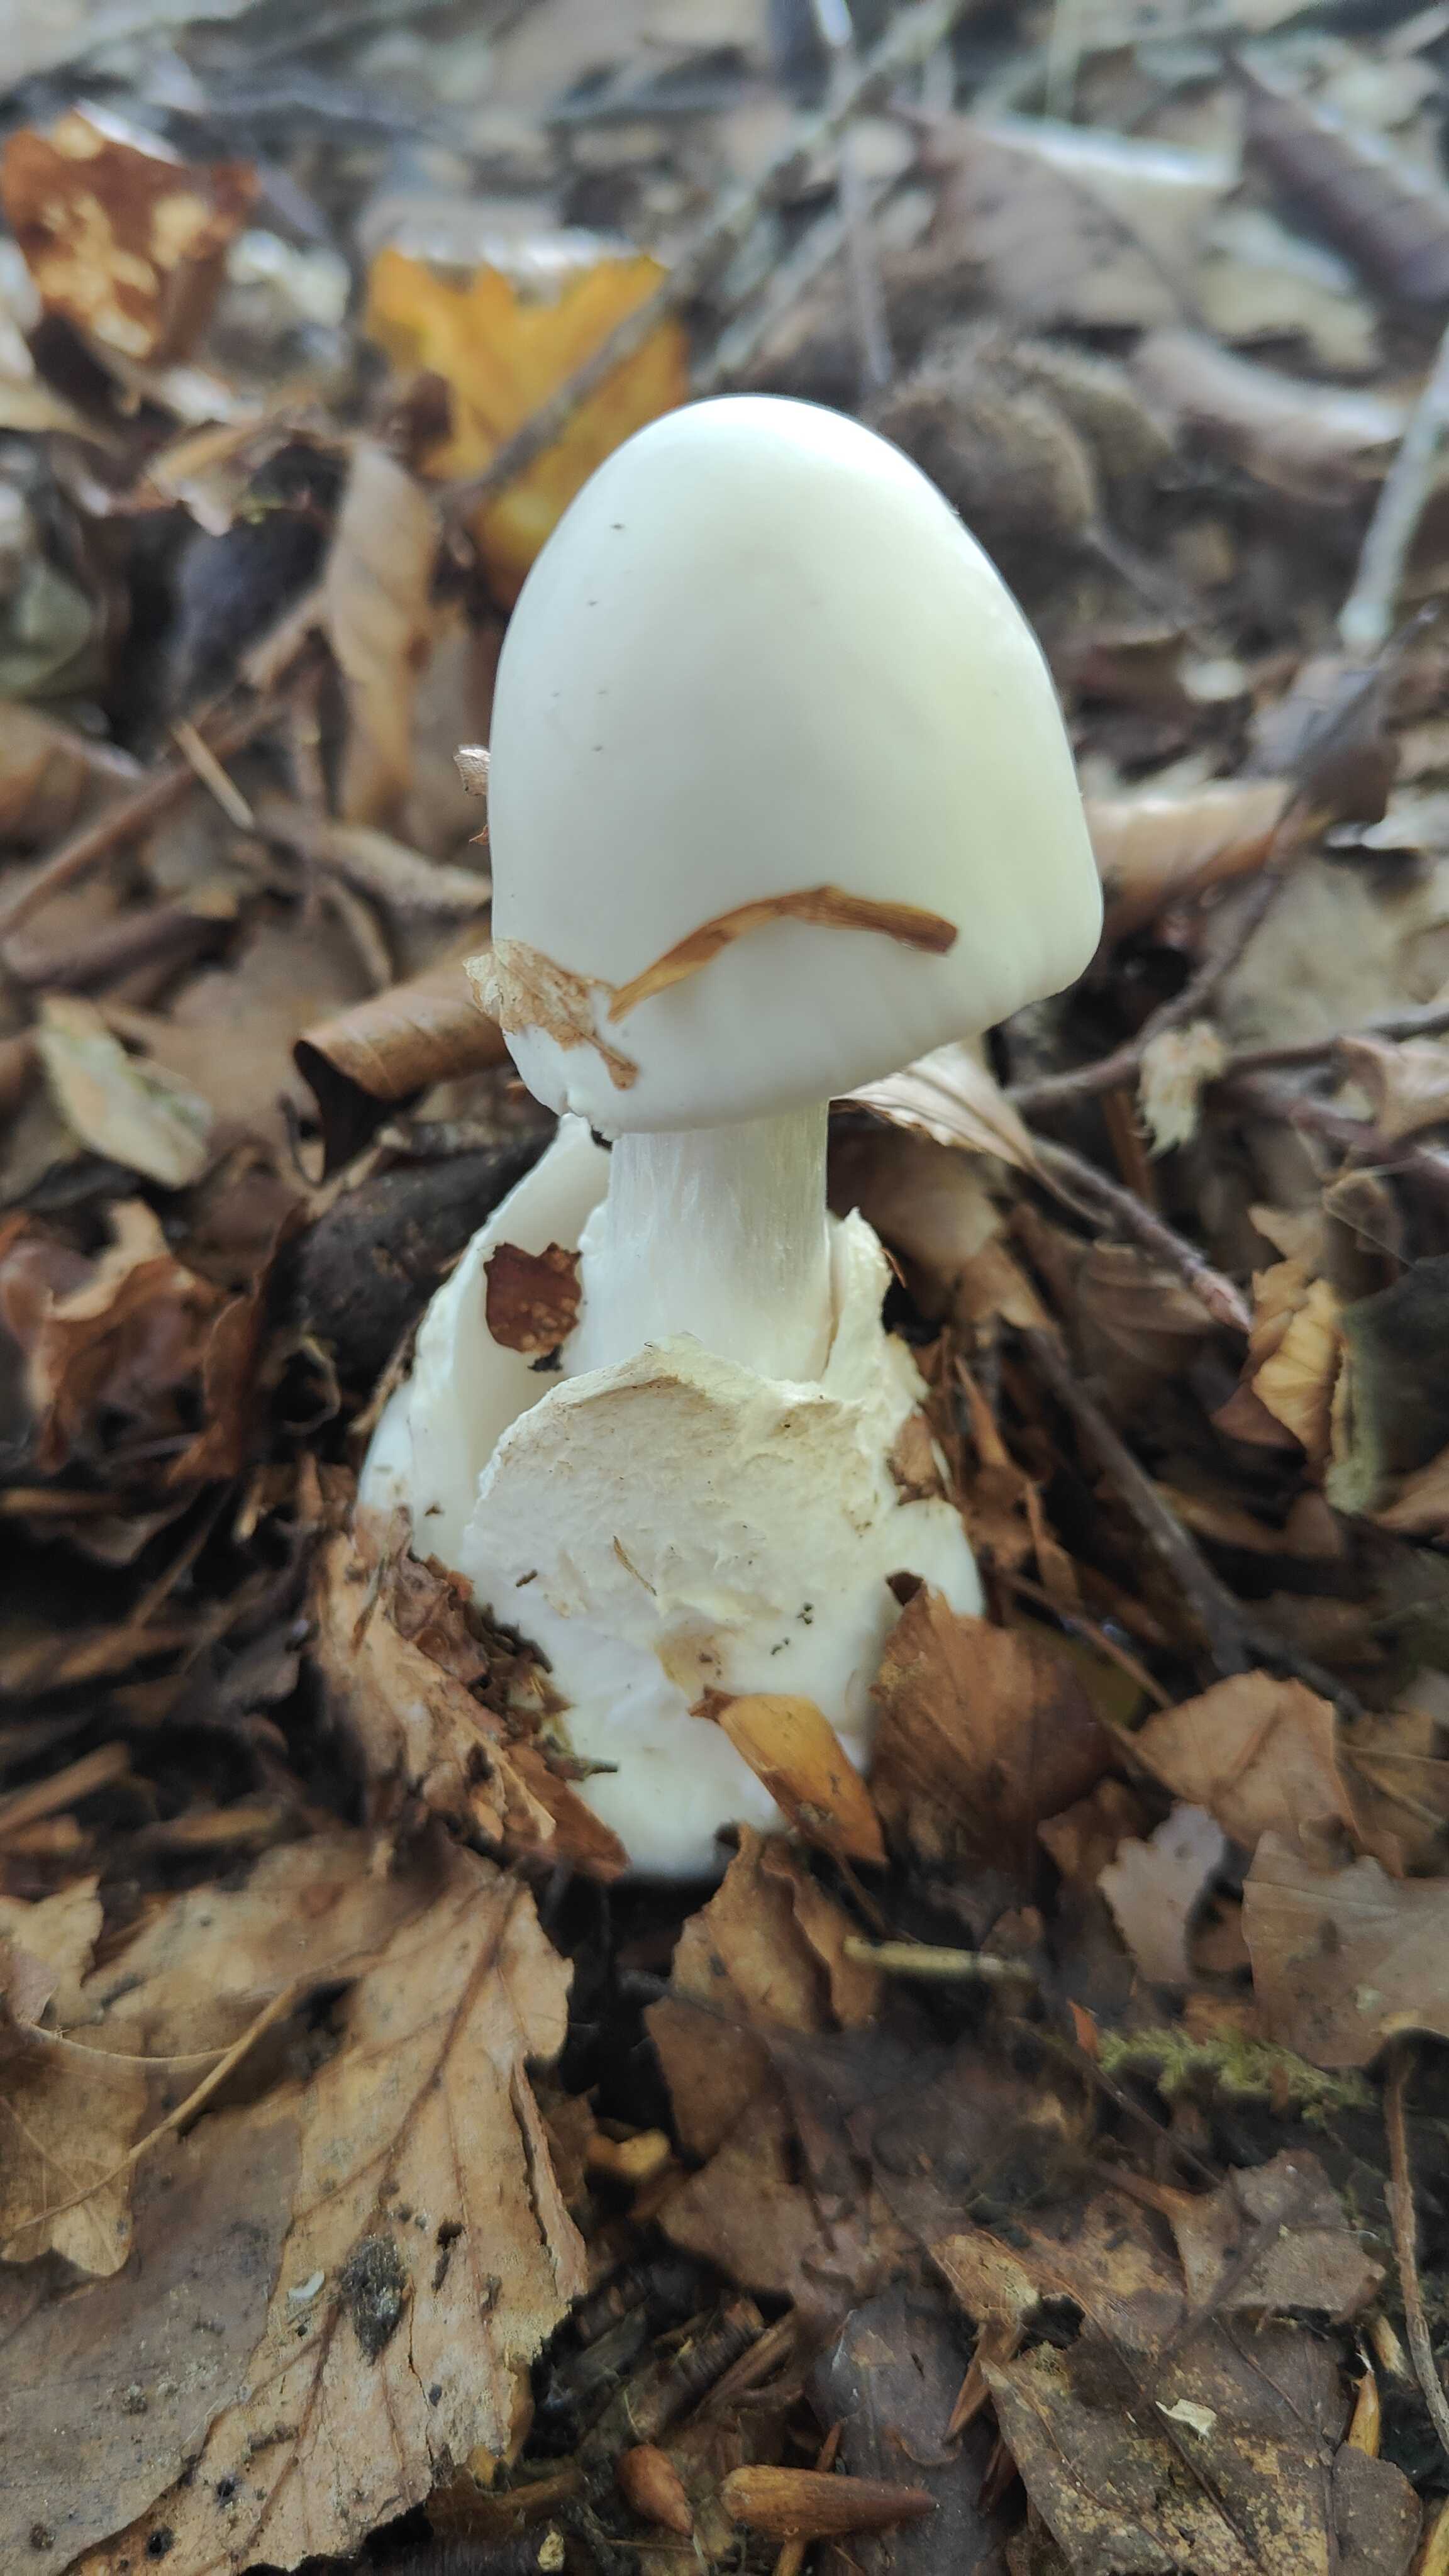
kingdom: Fungi
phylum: Basidiomycota
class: Agaricomycetes
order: Agaricales
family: Amanitaceae
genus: Amanita
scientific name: Amanita virosa
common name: snehvid fluesvamp
